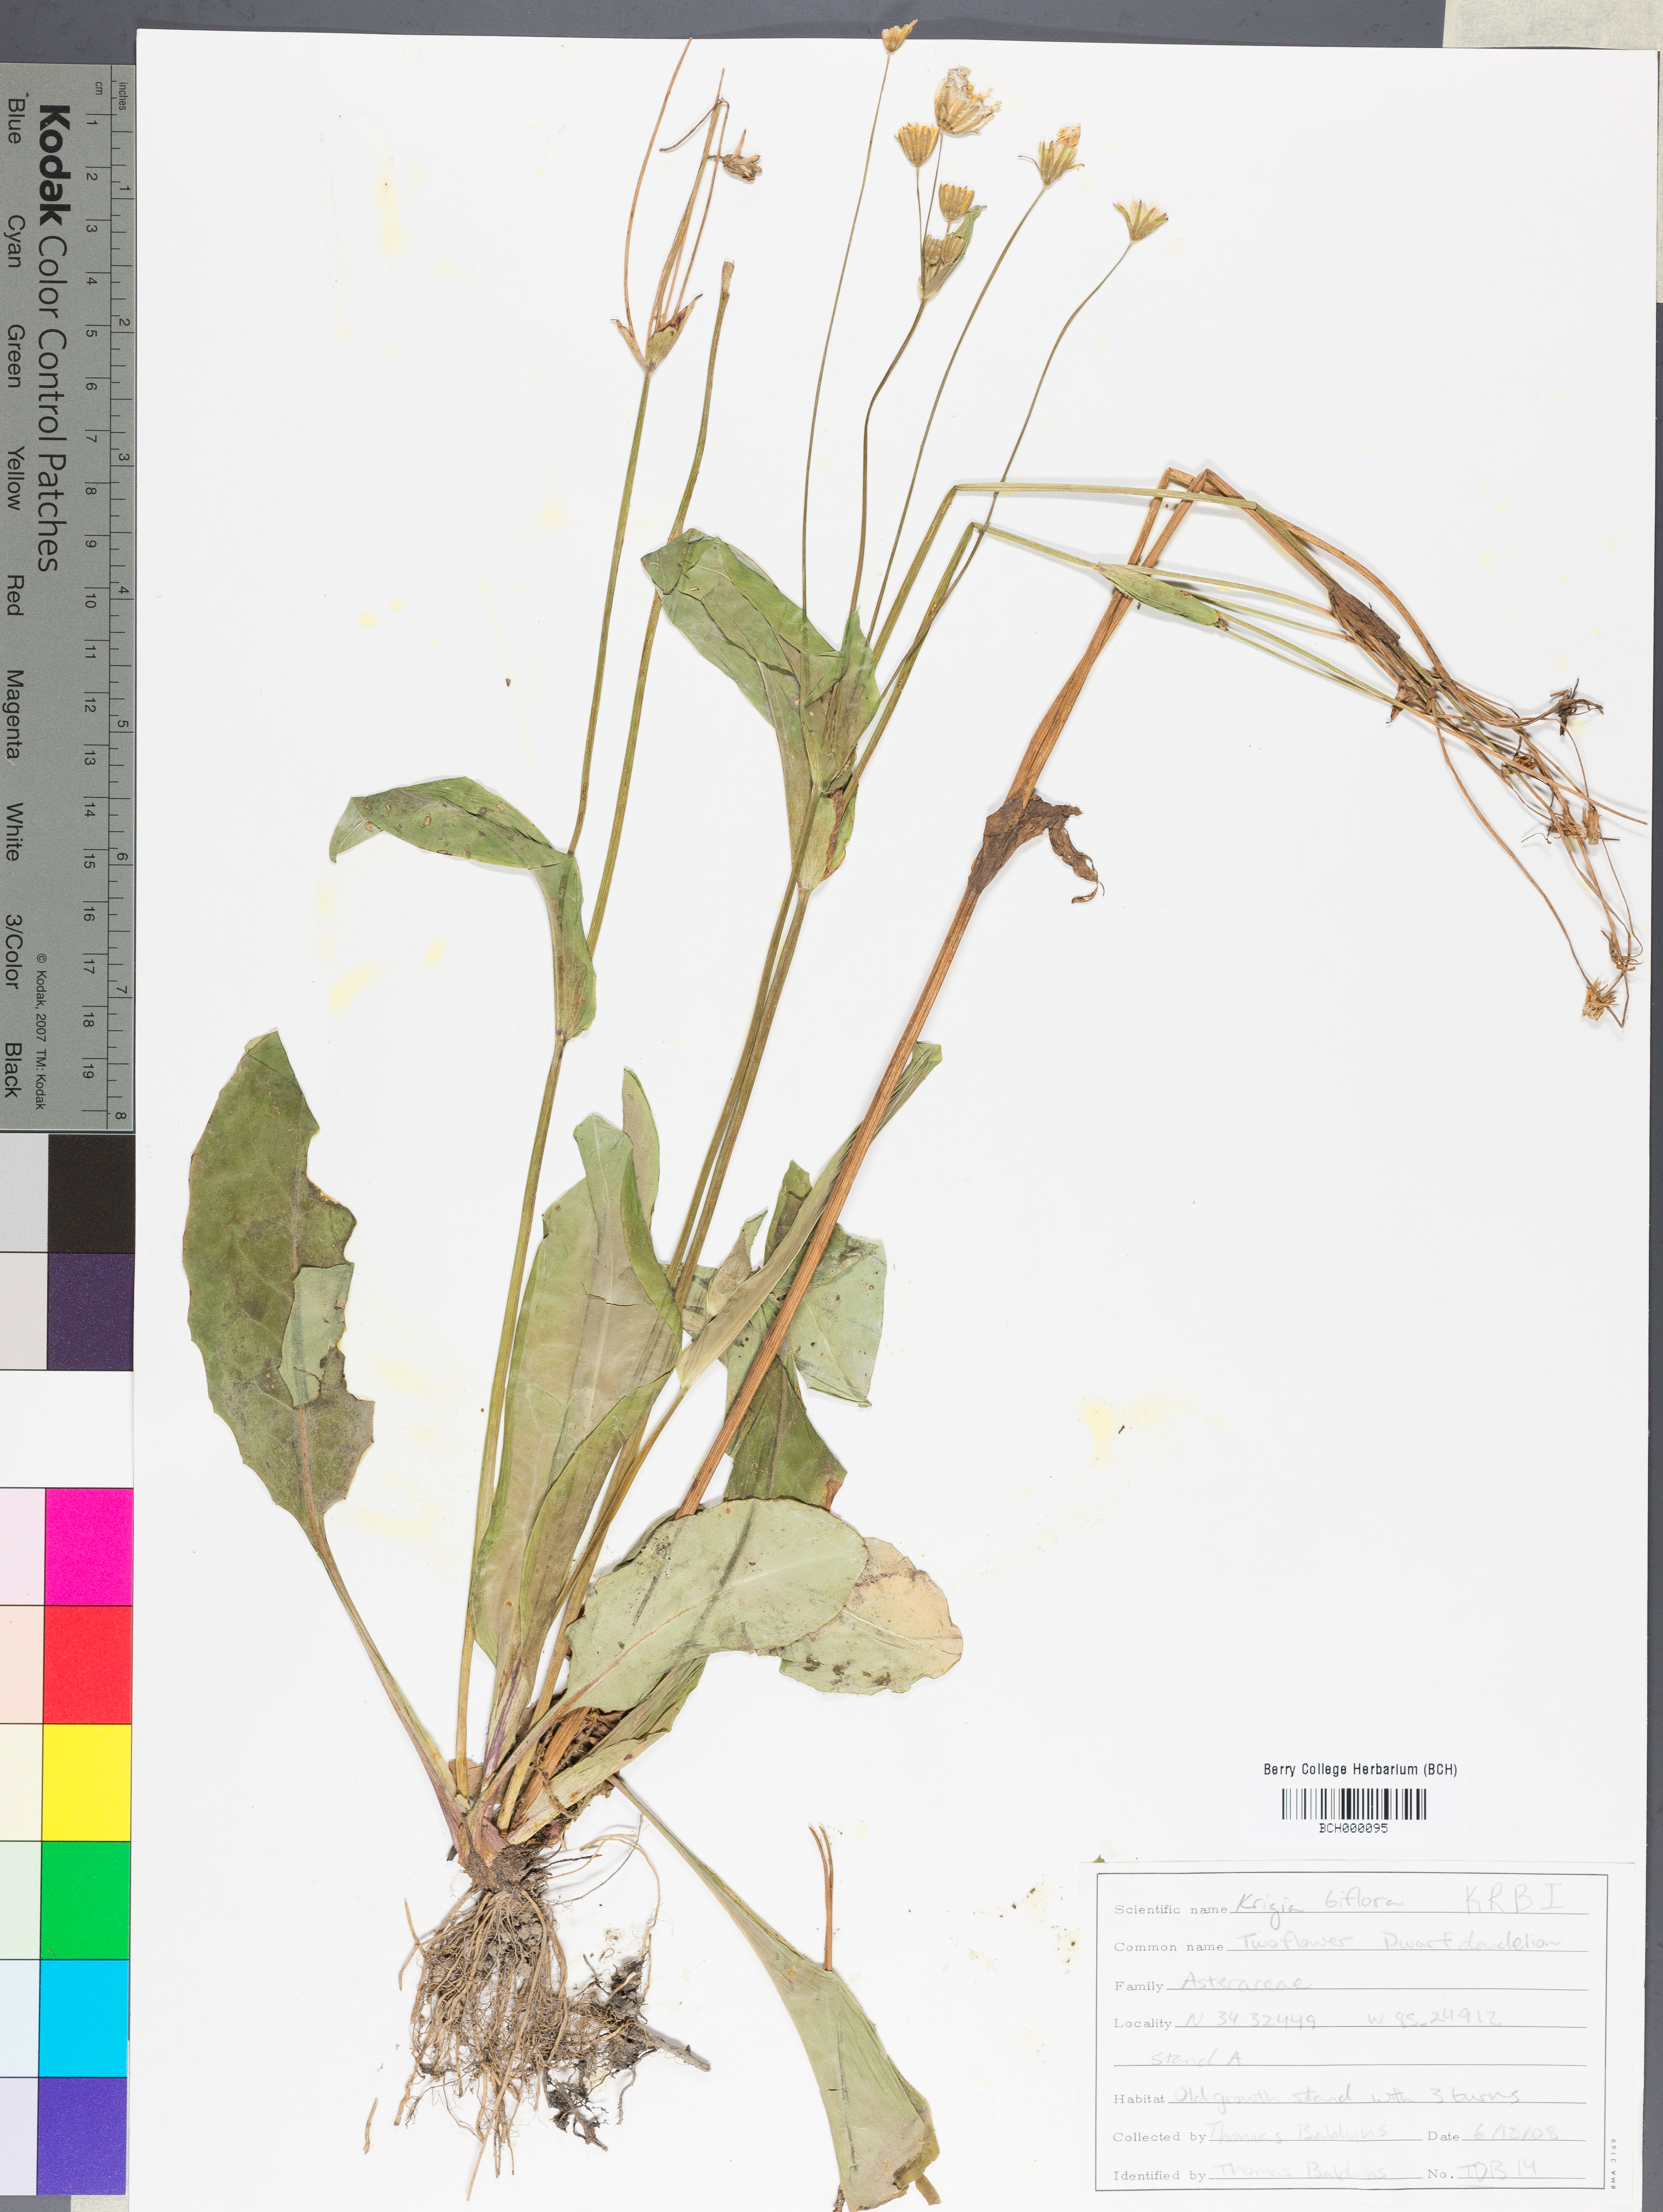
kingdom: Plantae
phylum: Tracheophyta
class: Magnoliopsida
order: Asterales
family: Asteraceae
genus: Krigia
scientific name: Krigia biflora
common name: Orange dwarf-dandelion
